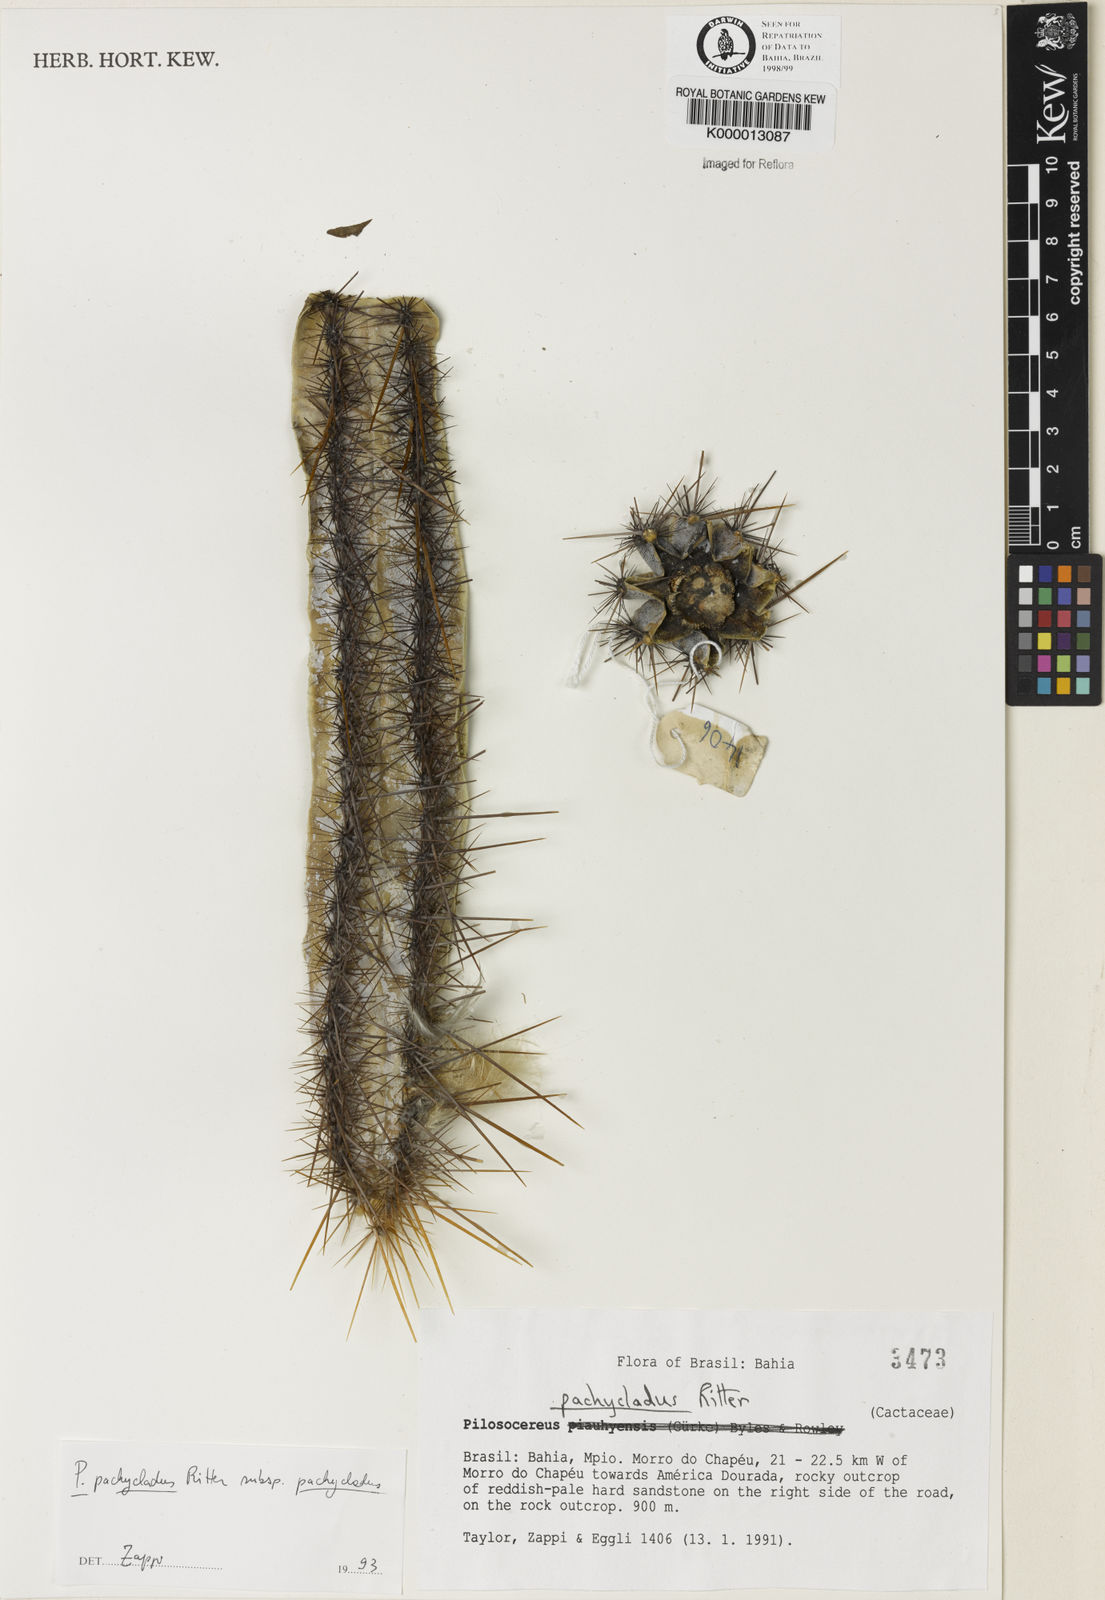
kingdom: Plantae
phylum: Tracheophyta
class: Magnoliopsida
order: Caryophyllales
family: Cactaceae
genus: Pilosocereus
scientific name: Pilosocereus pachycladus
